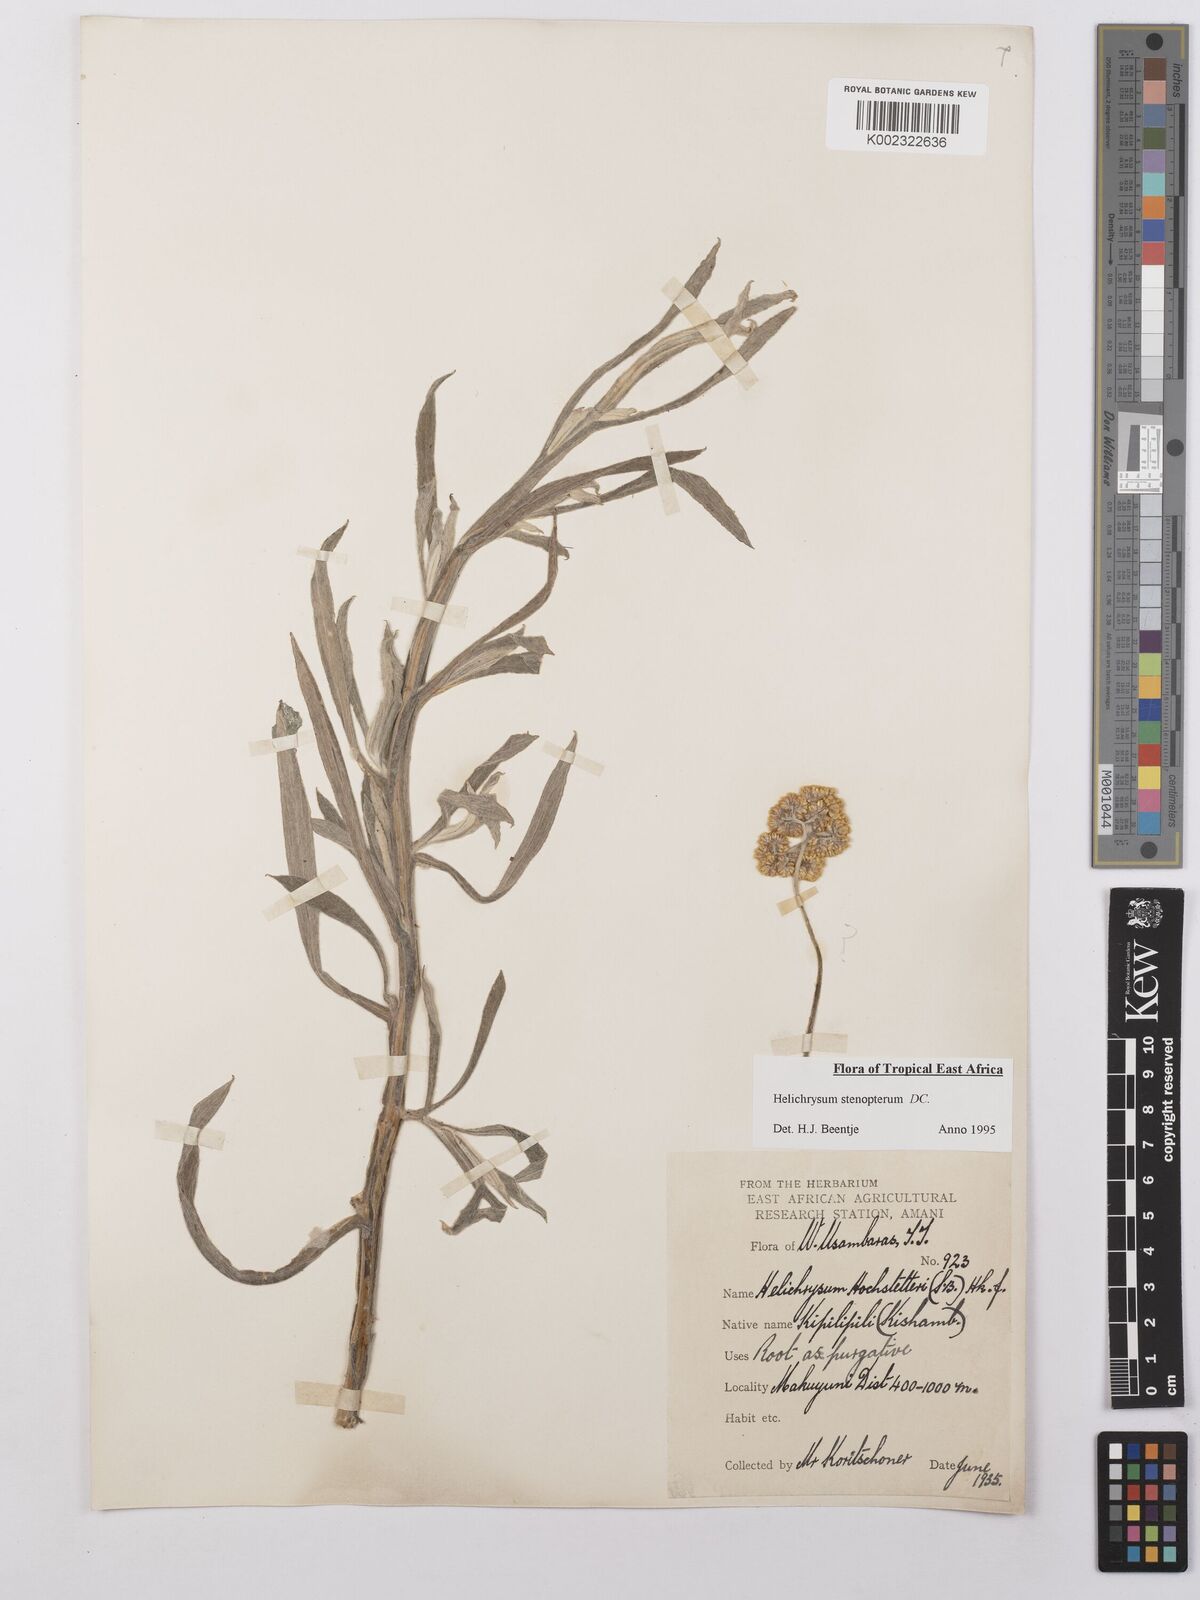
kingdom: Plantae
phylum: Tracheophyta
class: Magnoliopsida
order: Asterales
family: Asteraceae
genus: Helichrysum
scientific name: Helichrysum stenopterum
